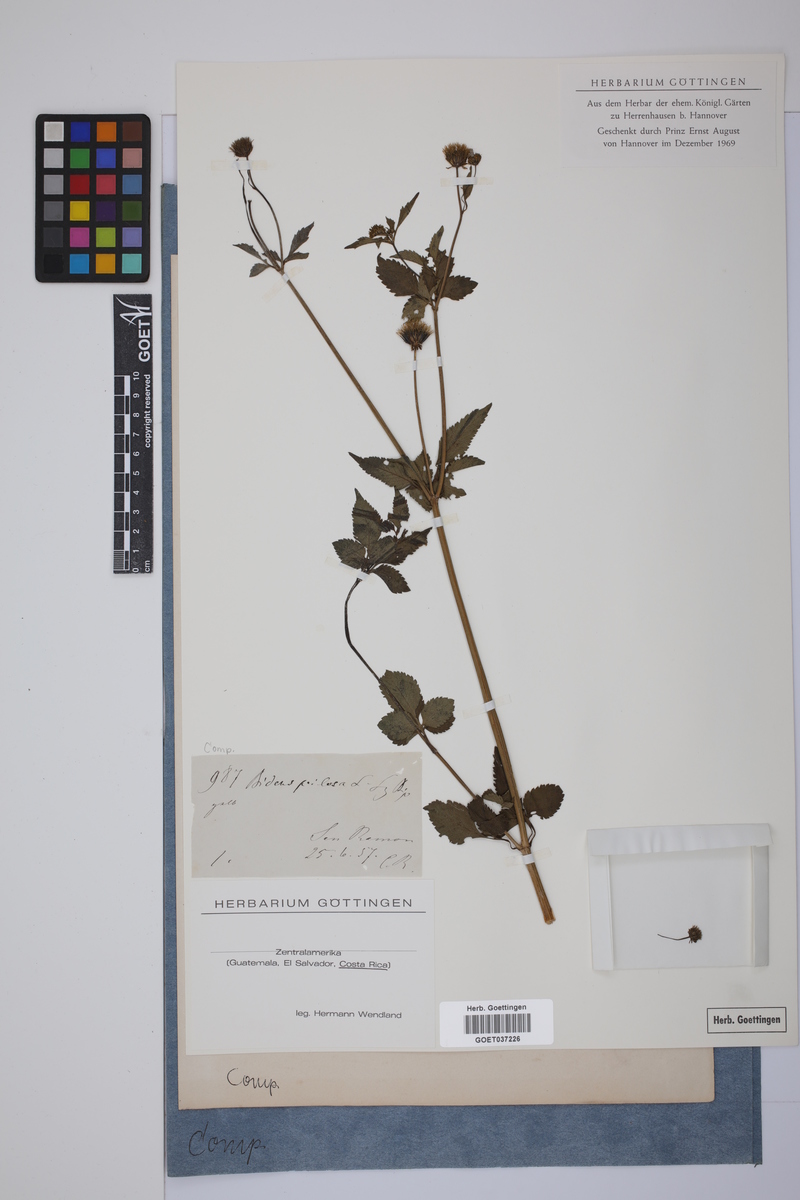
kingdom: Plantae
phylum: Tracheophyta
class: Magnoliopsida
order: Asterales
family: Asteraceae
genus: Bidens
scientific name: Bidens pilosa
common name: Black-jack
